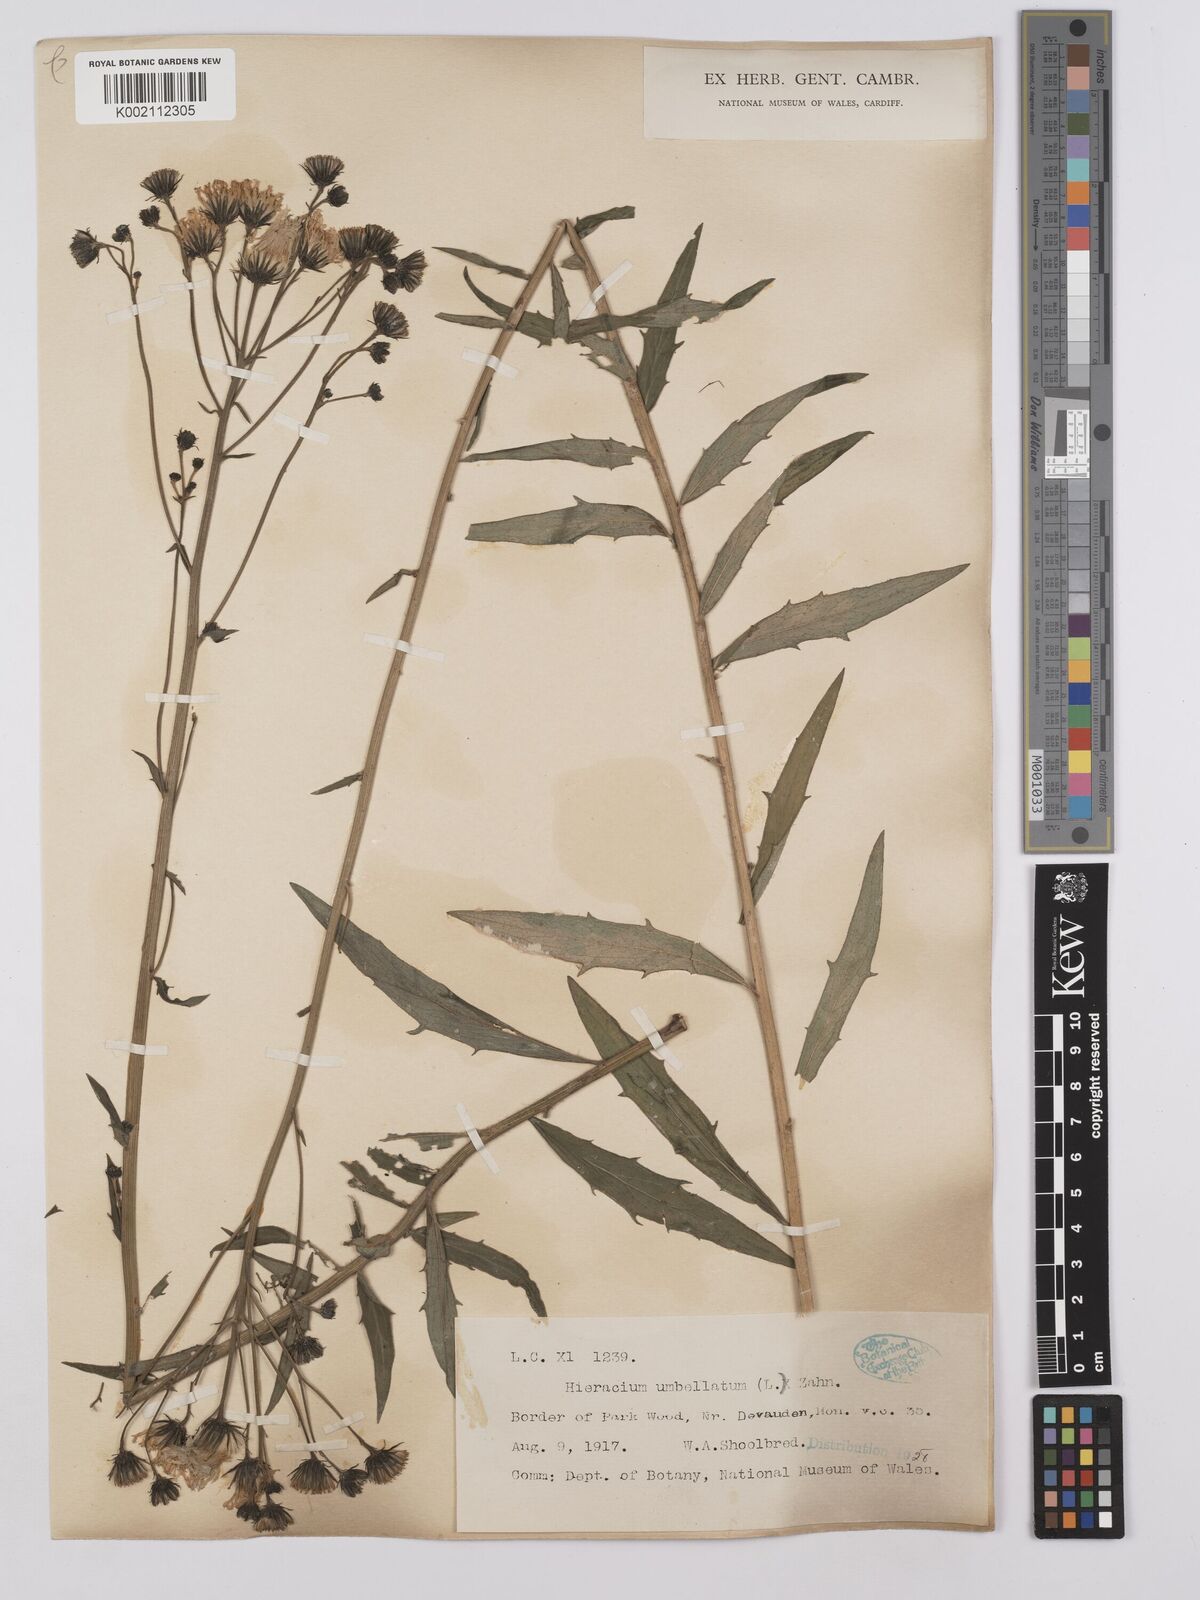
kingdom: Plantae
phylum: Tracheophyta
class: Magnoliopsida
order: Asterales
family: Asteraceae
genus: Hieracium
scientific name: Hieracium umbellatum
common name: Northern hawkweed
